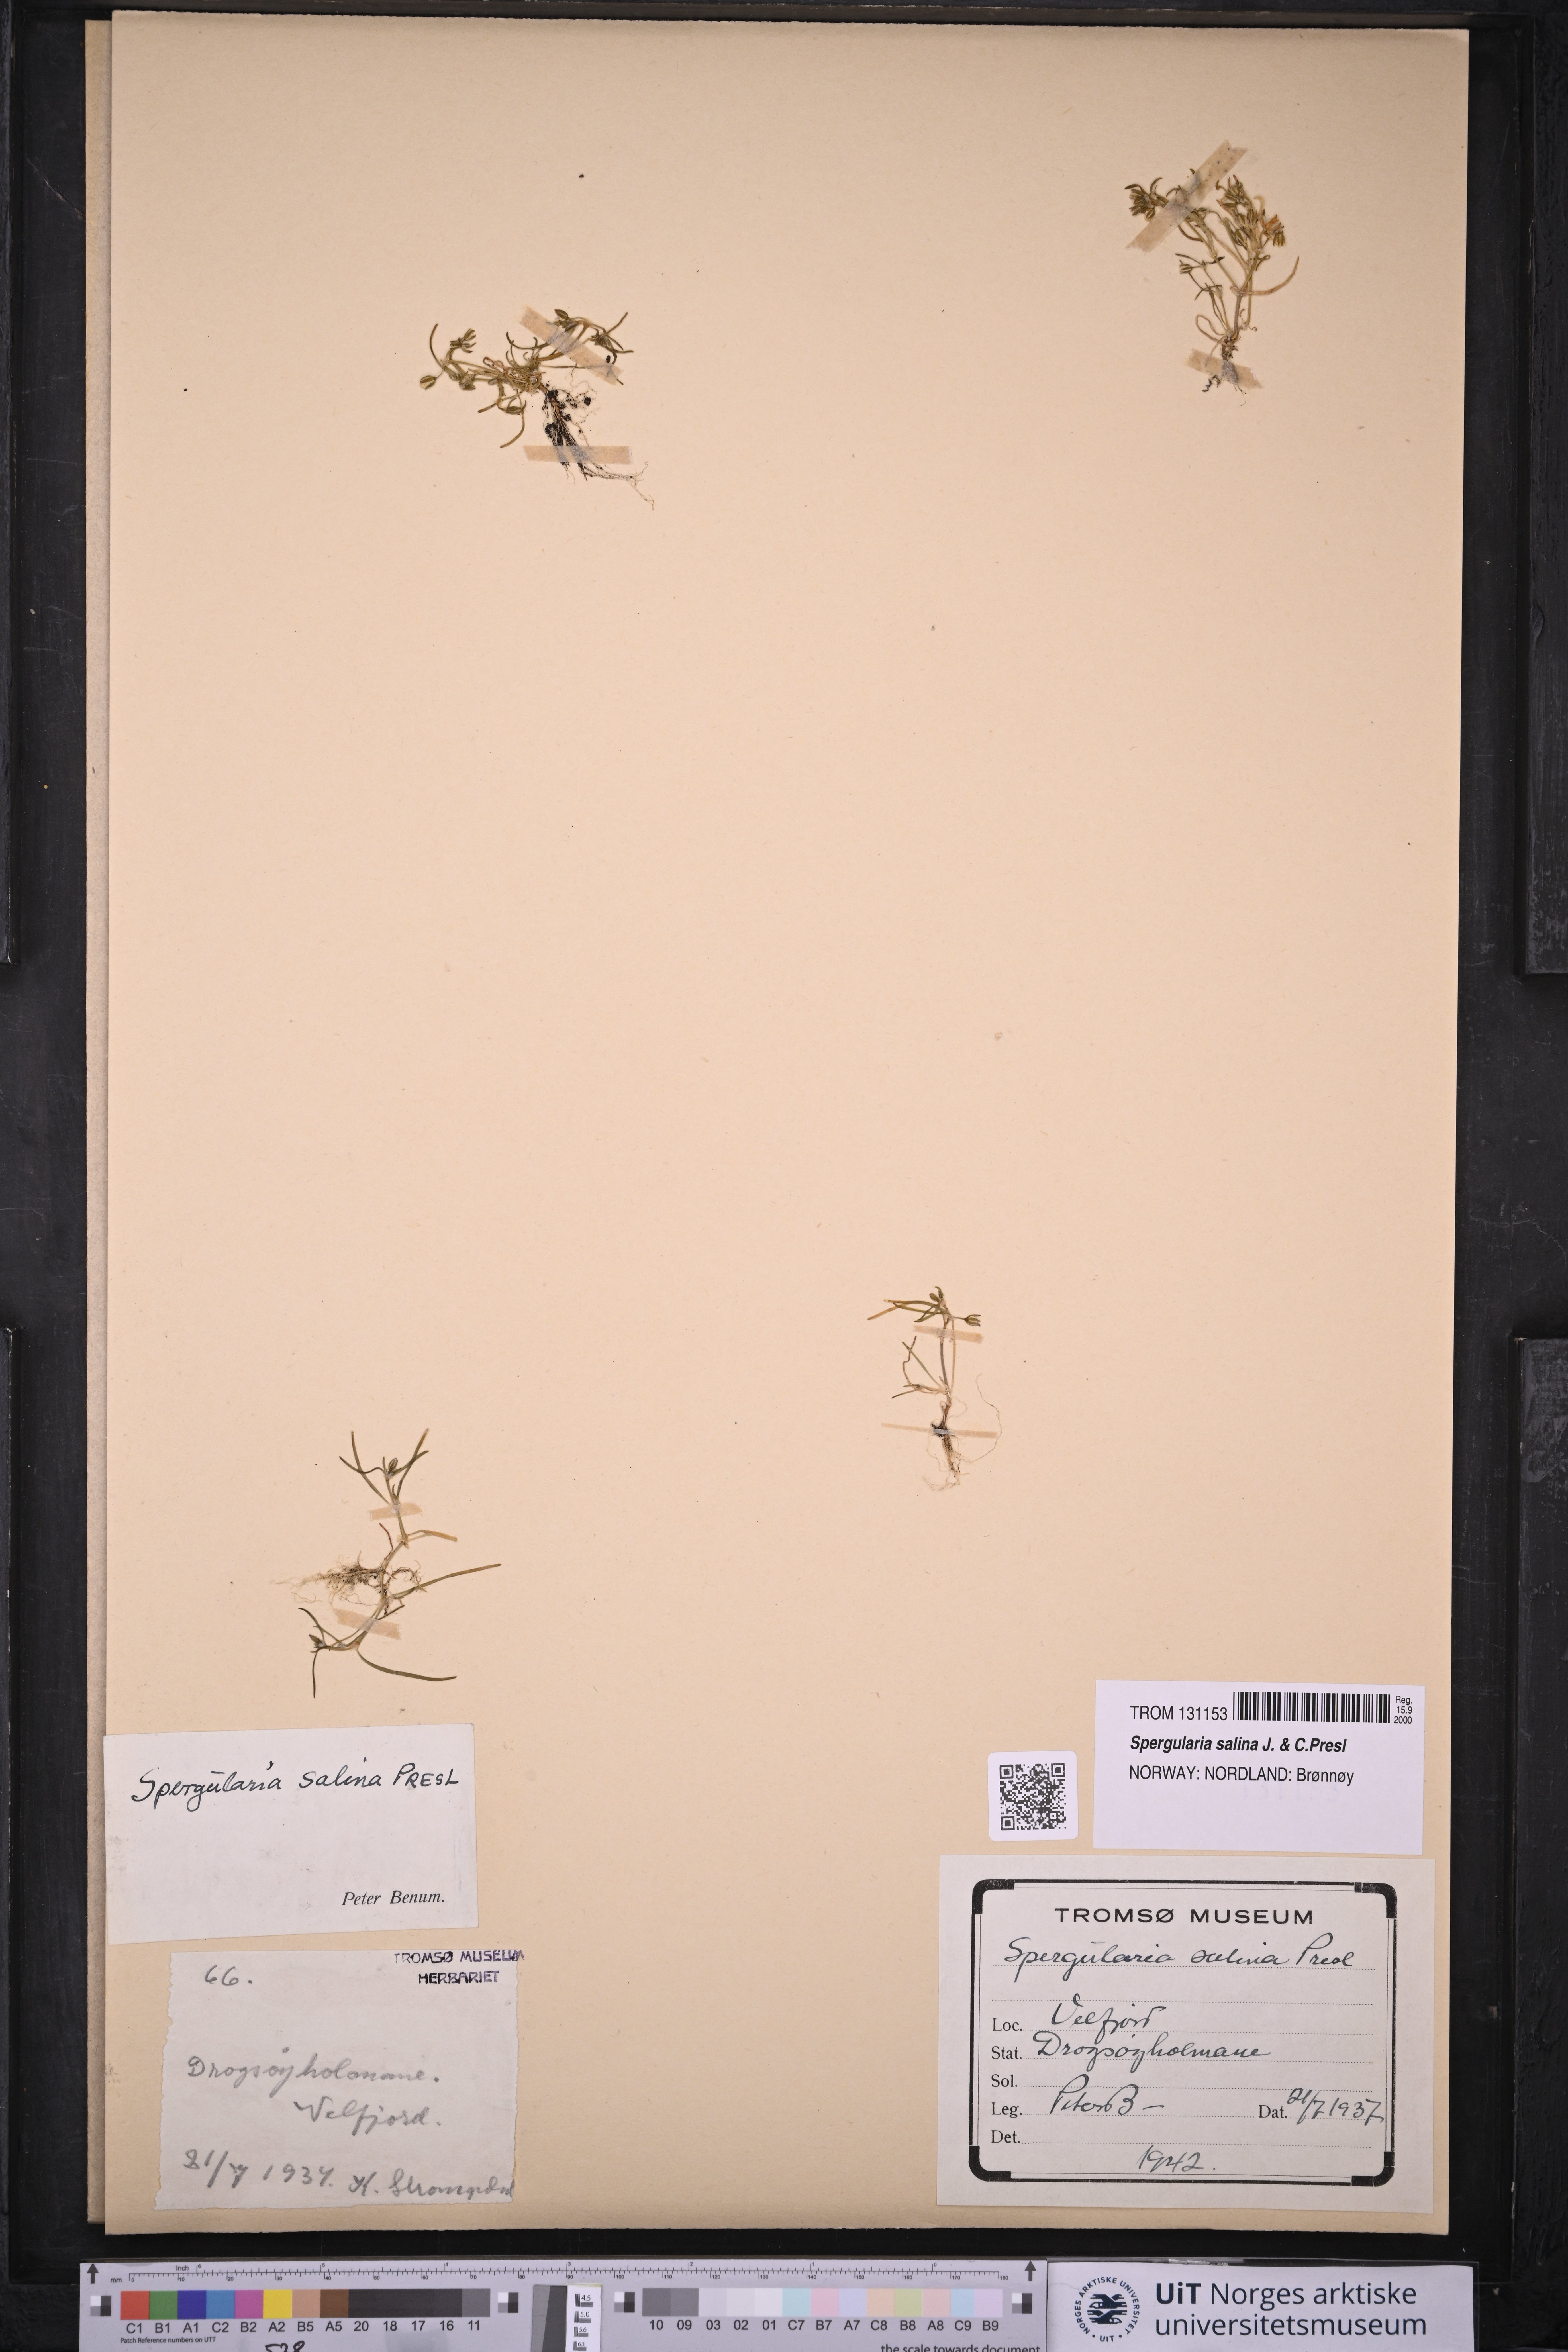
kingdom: Plantae
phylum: Tracheophyta
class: Magnoliopsida
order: Caryophyllales
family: Caryophyllaceae
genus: Spergularia
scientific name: Spergularia marina
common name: Lesser sea-spurrey
